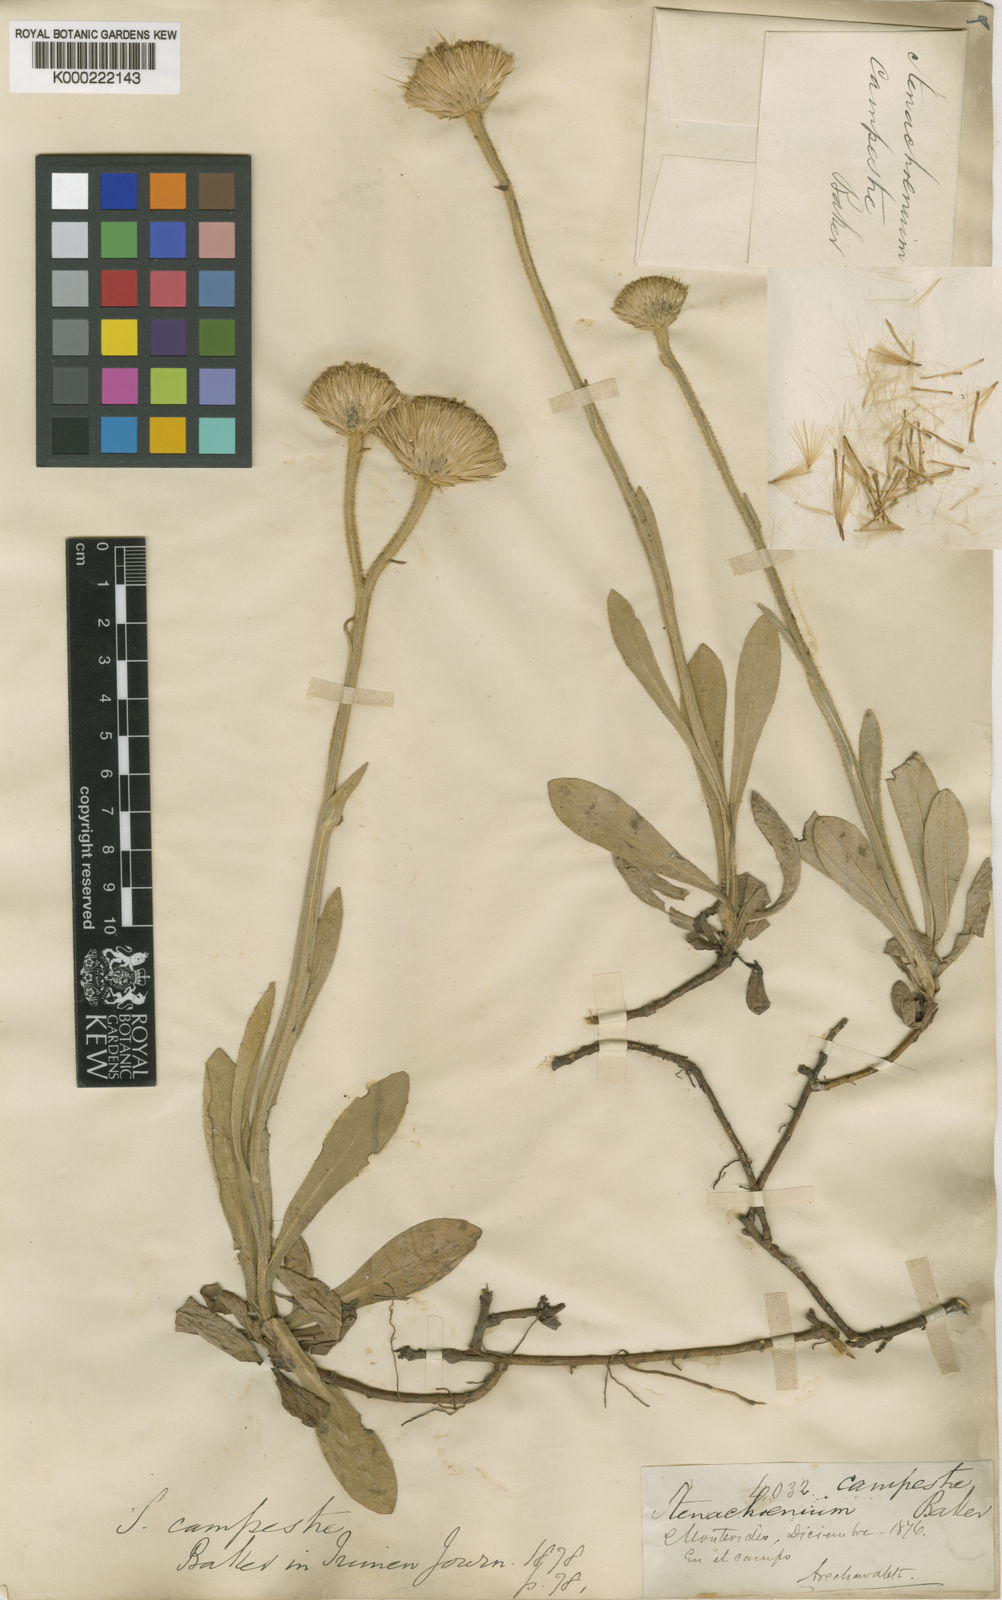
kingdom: Plantae
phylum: Tracheophyta
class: Magnoliopsida
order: Asterales
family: Asteraceae
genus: Stenachaenium
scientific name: Stenachaenium campestre
